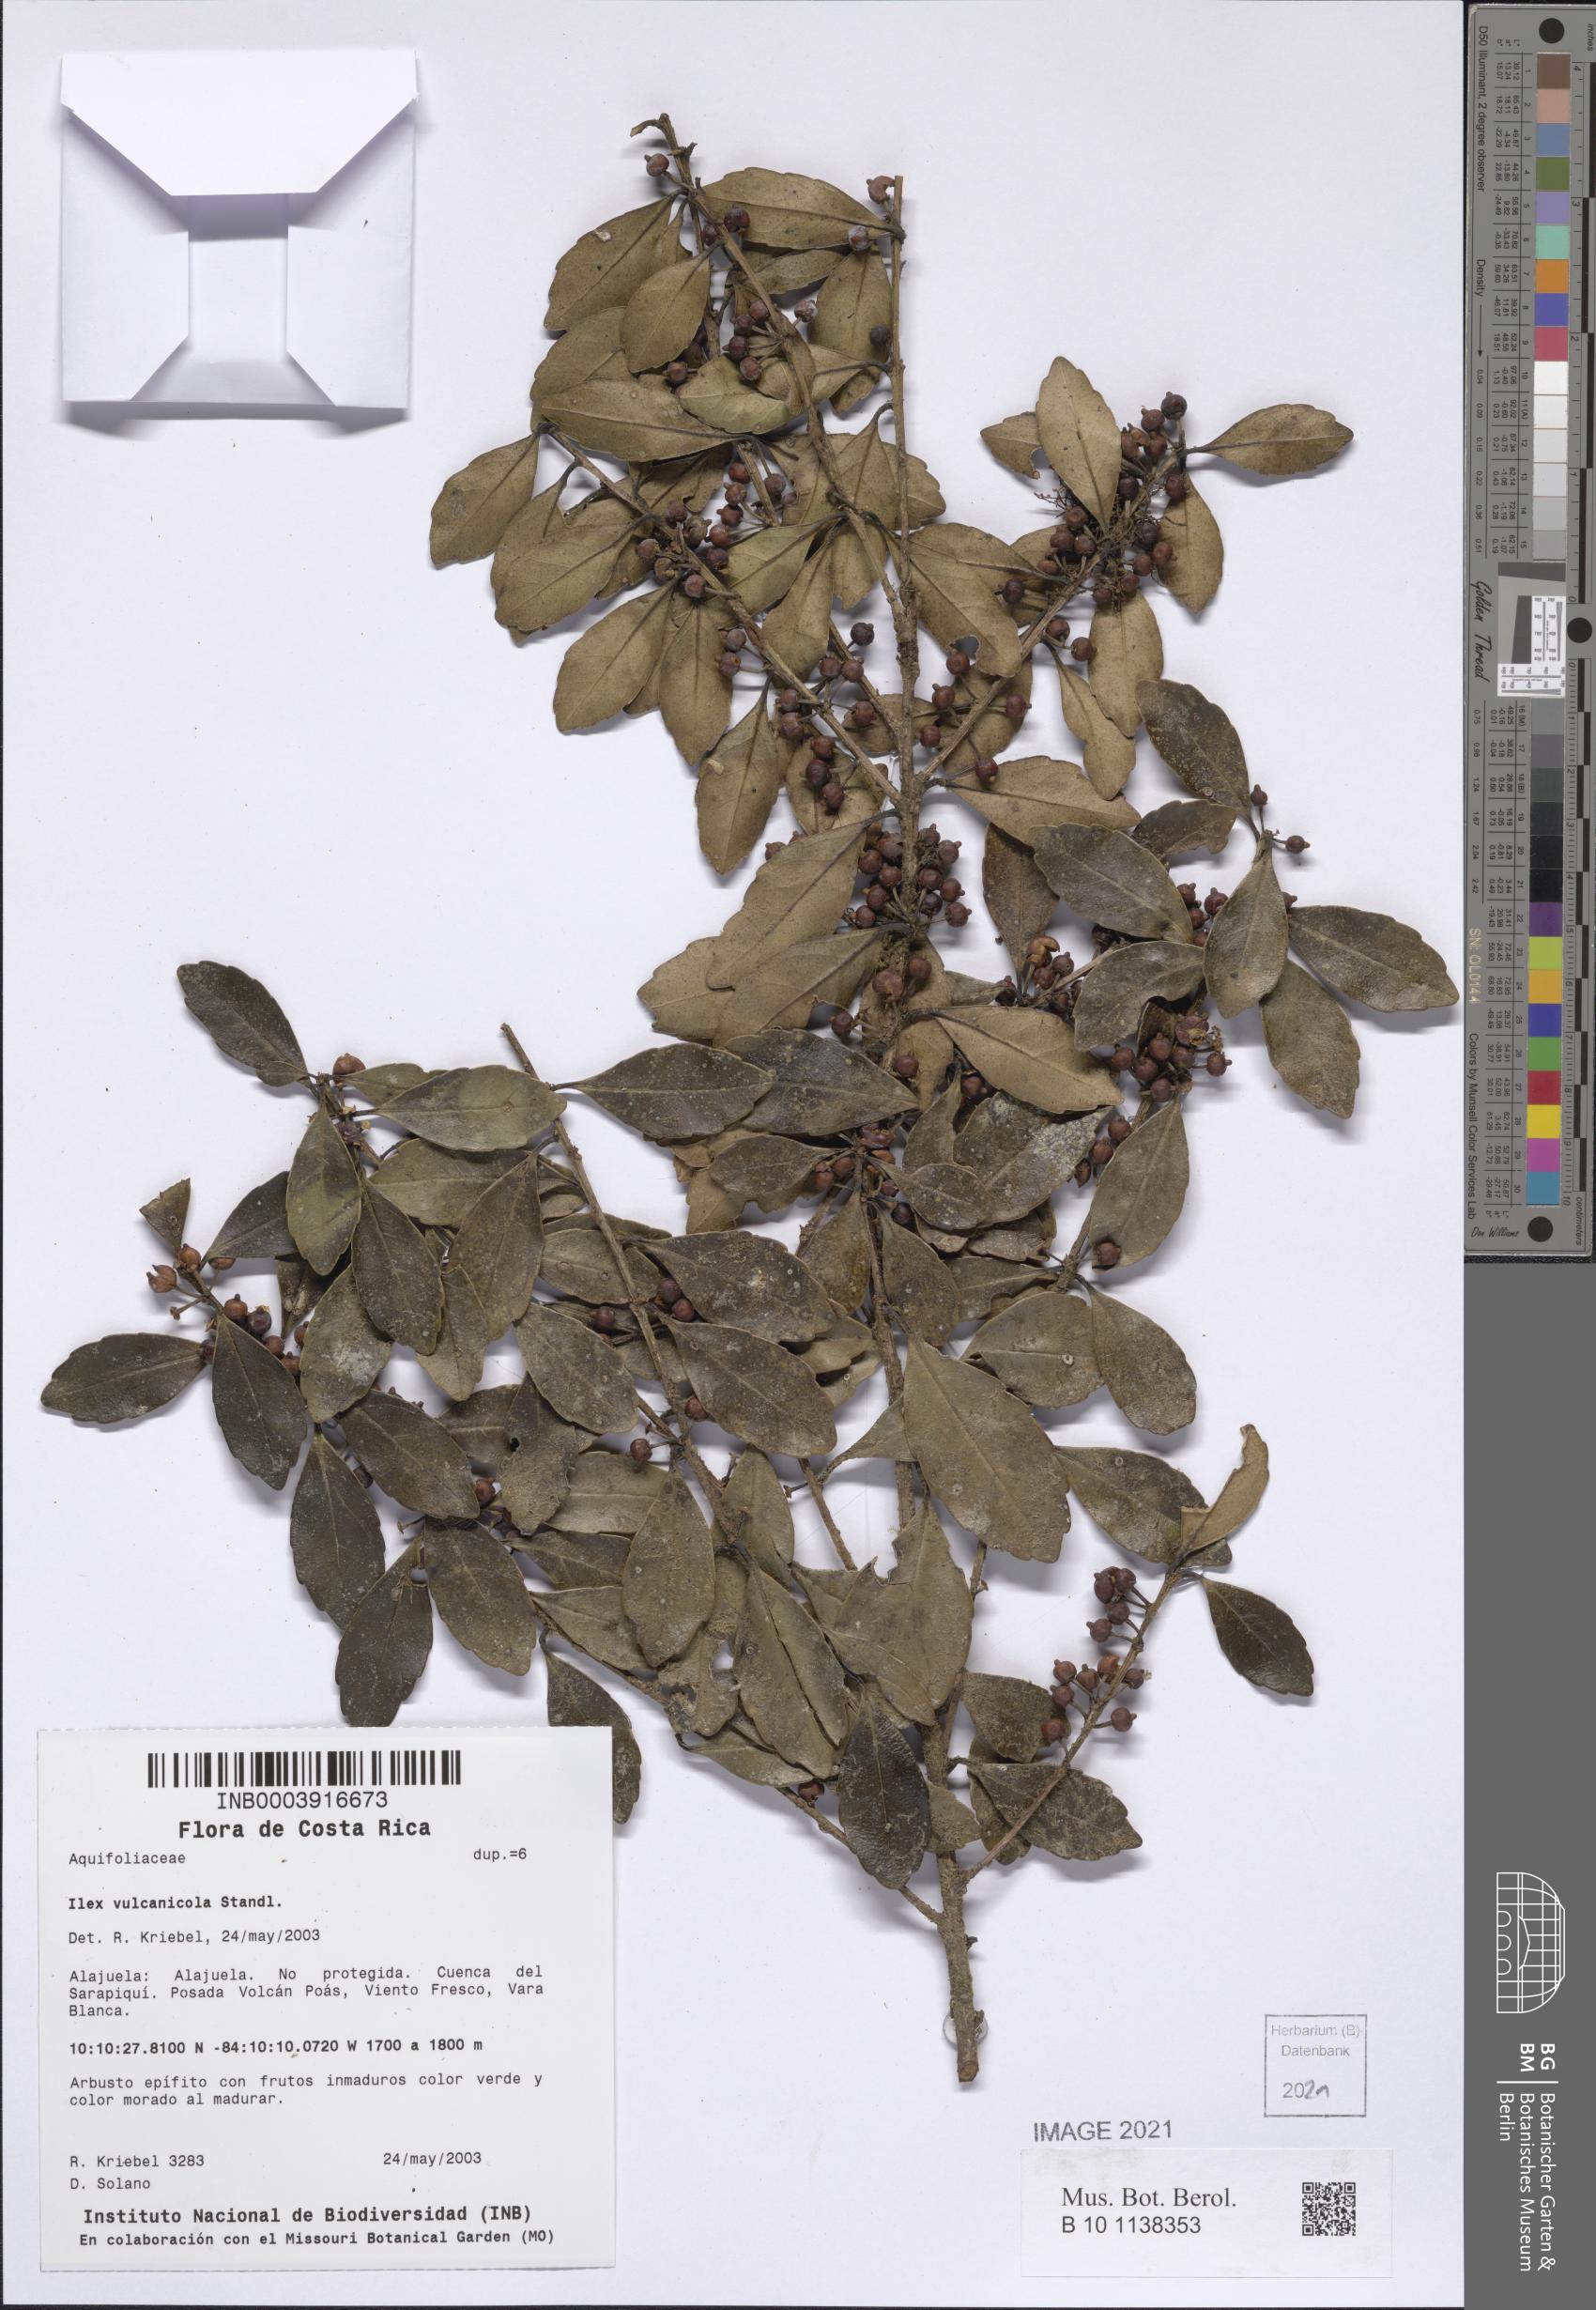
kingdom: Plantae
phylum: Tracheophyta
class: Magnoliopsida
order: Aquifoliales
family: Aquifoliaceae
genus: Ilex
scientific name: Ilex vulcanicola
